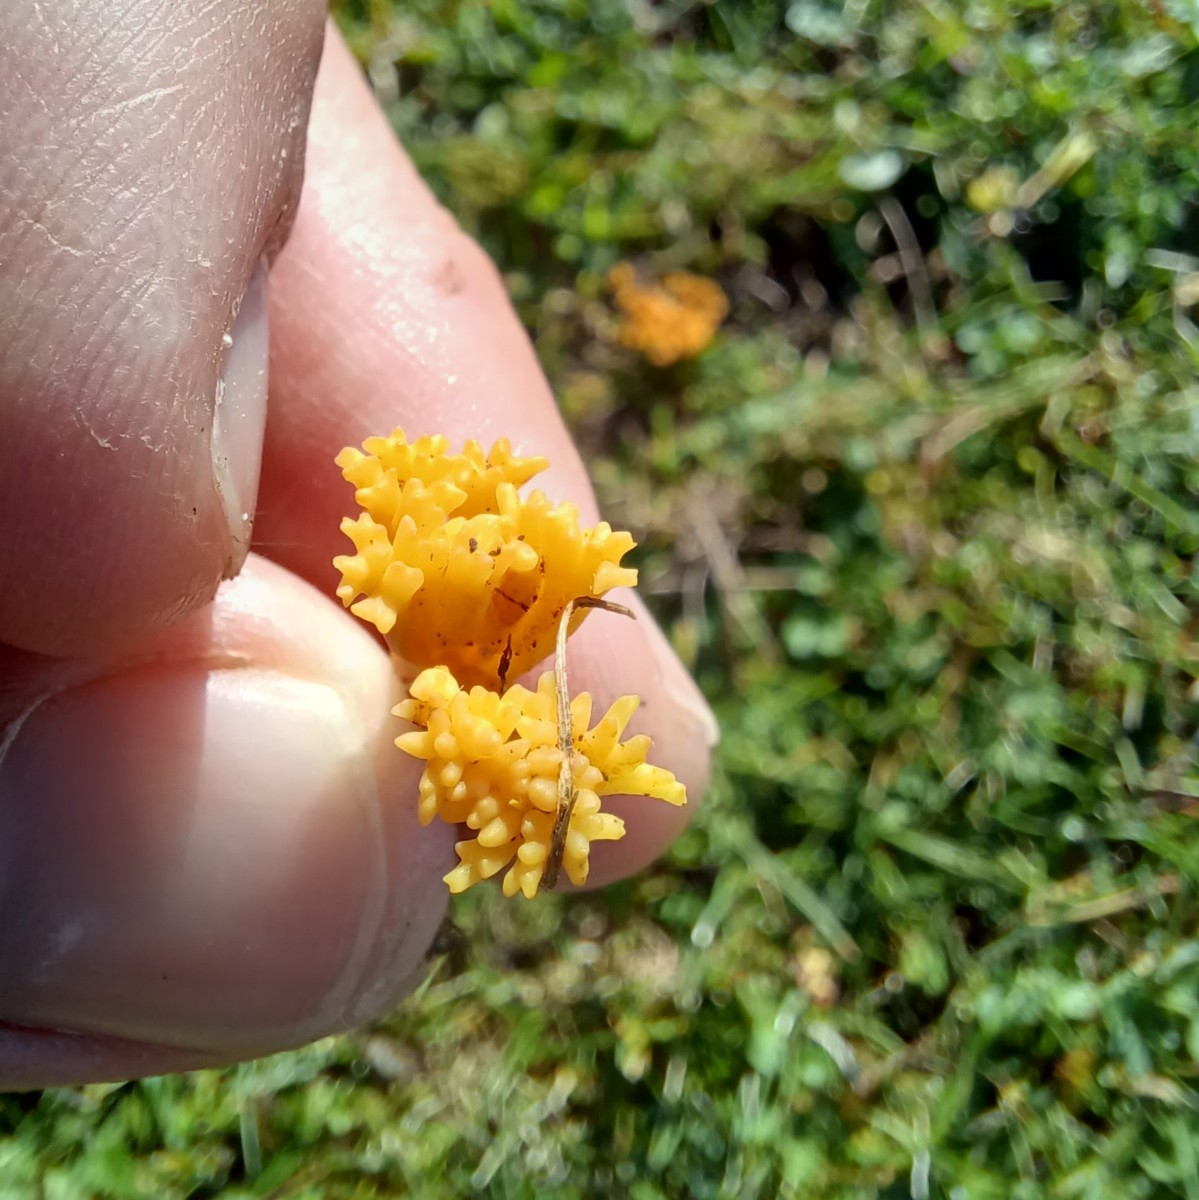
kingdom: Fungi
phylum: Basidiomycota
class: Agaricomycetes
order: Agaricales
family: Clavariaceae
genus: Clavulinopsis
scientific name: Clavulinopsis corniculata
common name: eng-køllesvamp
